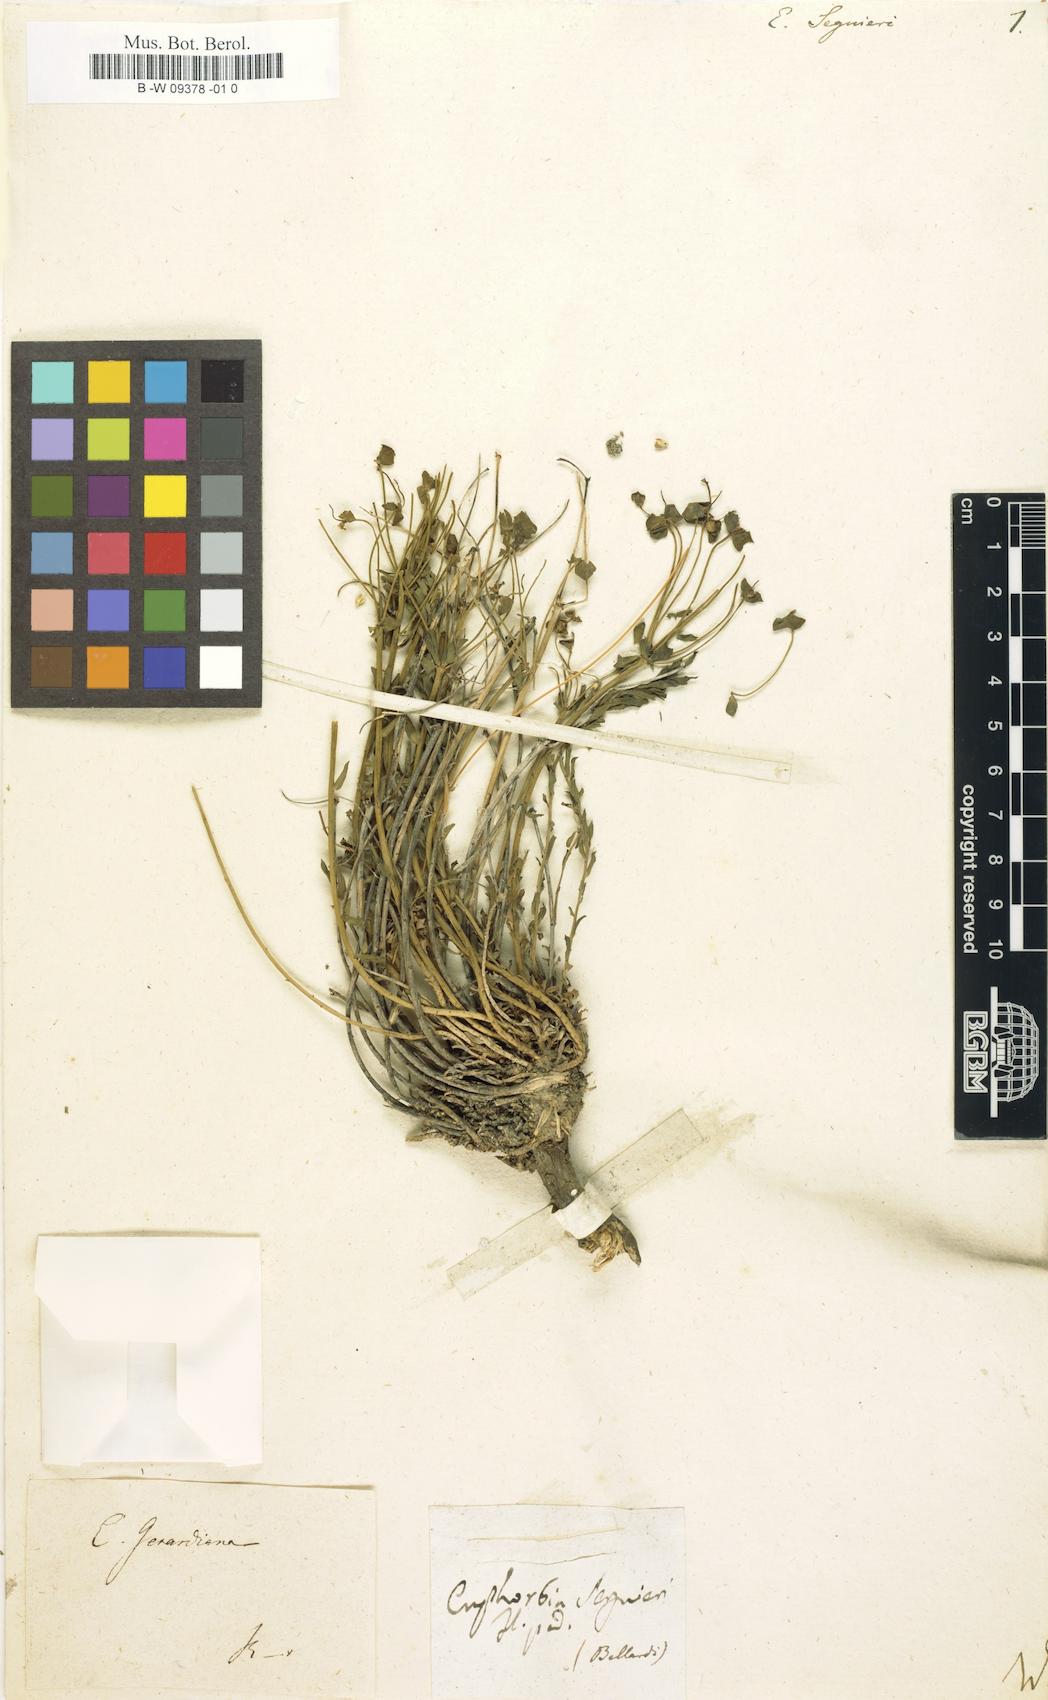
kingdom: Plantae
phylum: Tracheophyta
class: Magnoliopsida
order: Malpighiales
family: Euphorbiaceae
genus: Euphorbia
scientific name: Euphorbia seguieriana
